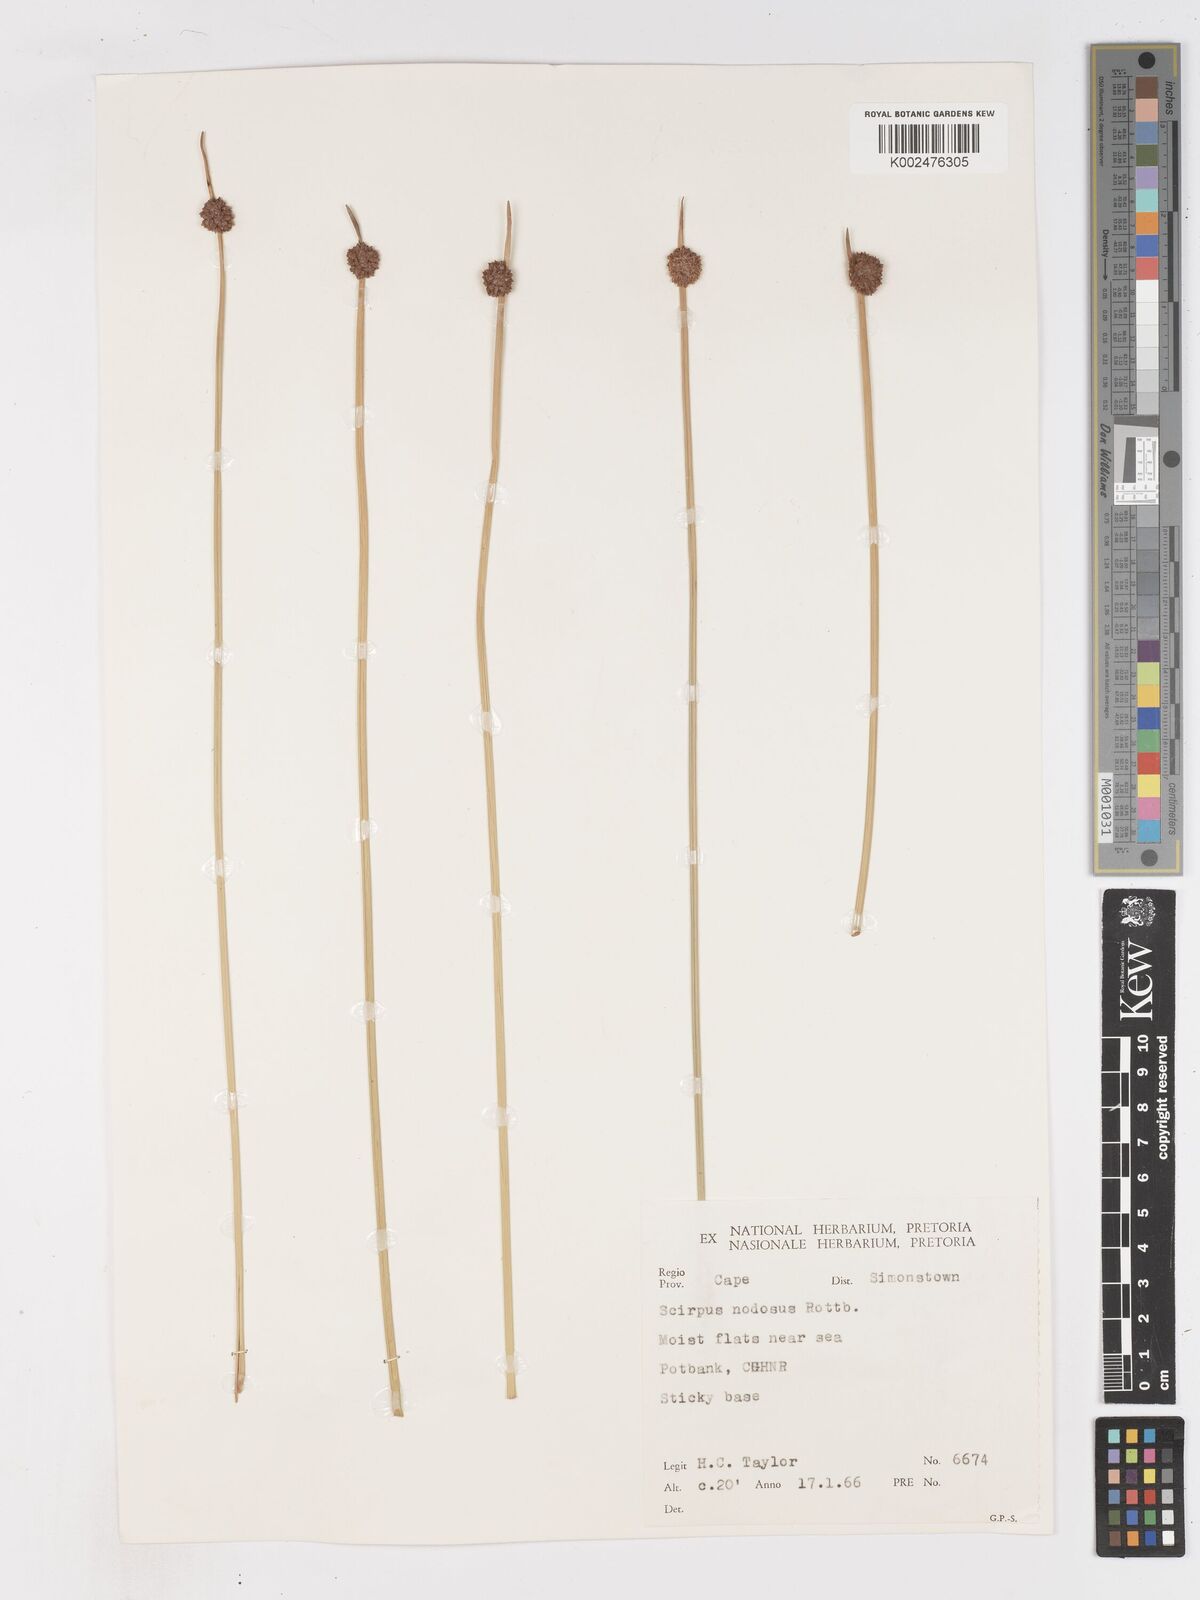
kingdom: Plantae
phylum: Tracheophyta
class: Liliopsida
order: Poales
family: Cyperaceae
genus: Ficinia
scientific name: Ficinia nodosa
